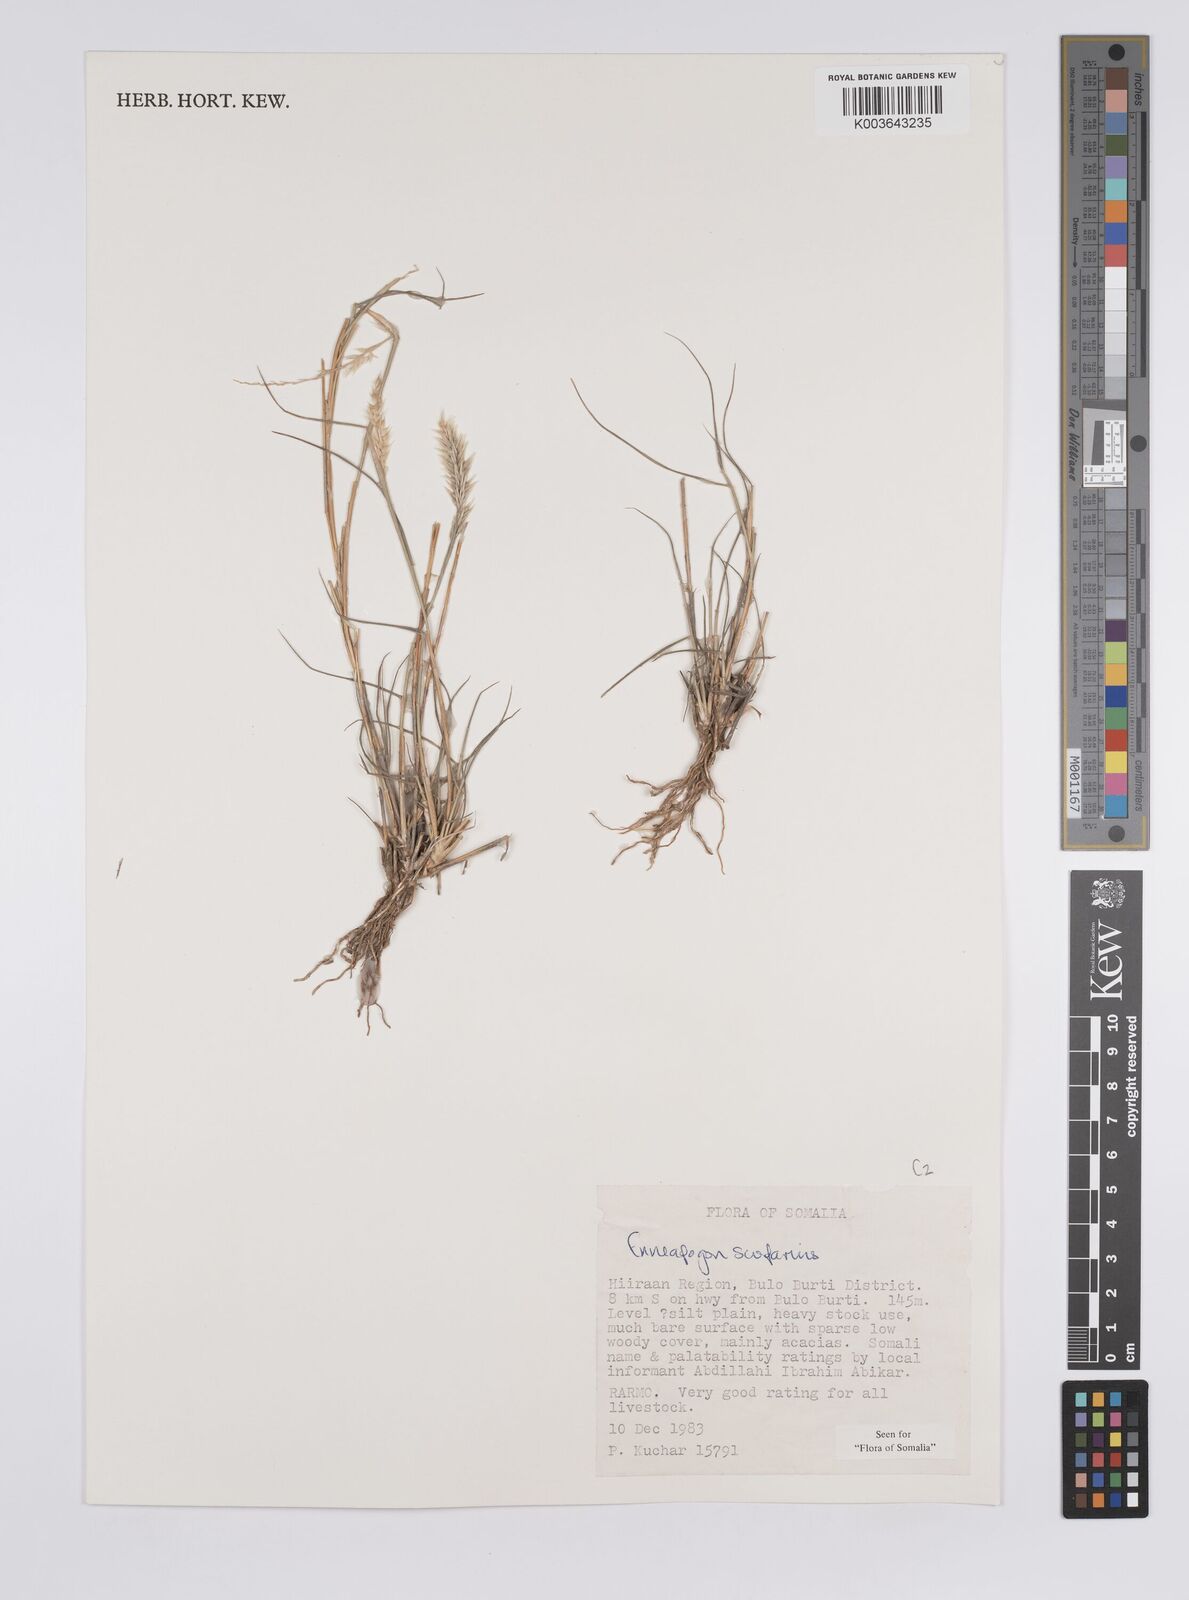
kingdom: Plantae
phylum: Tracheophyta
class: Liliopsida
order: Poales
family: Poaceae
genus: Enneapogon
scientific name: Enneapogon scoparius
